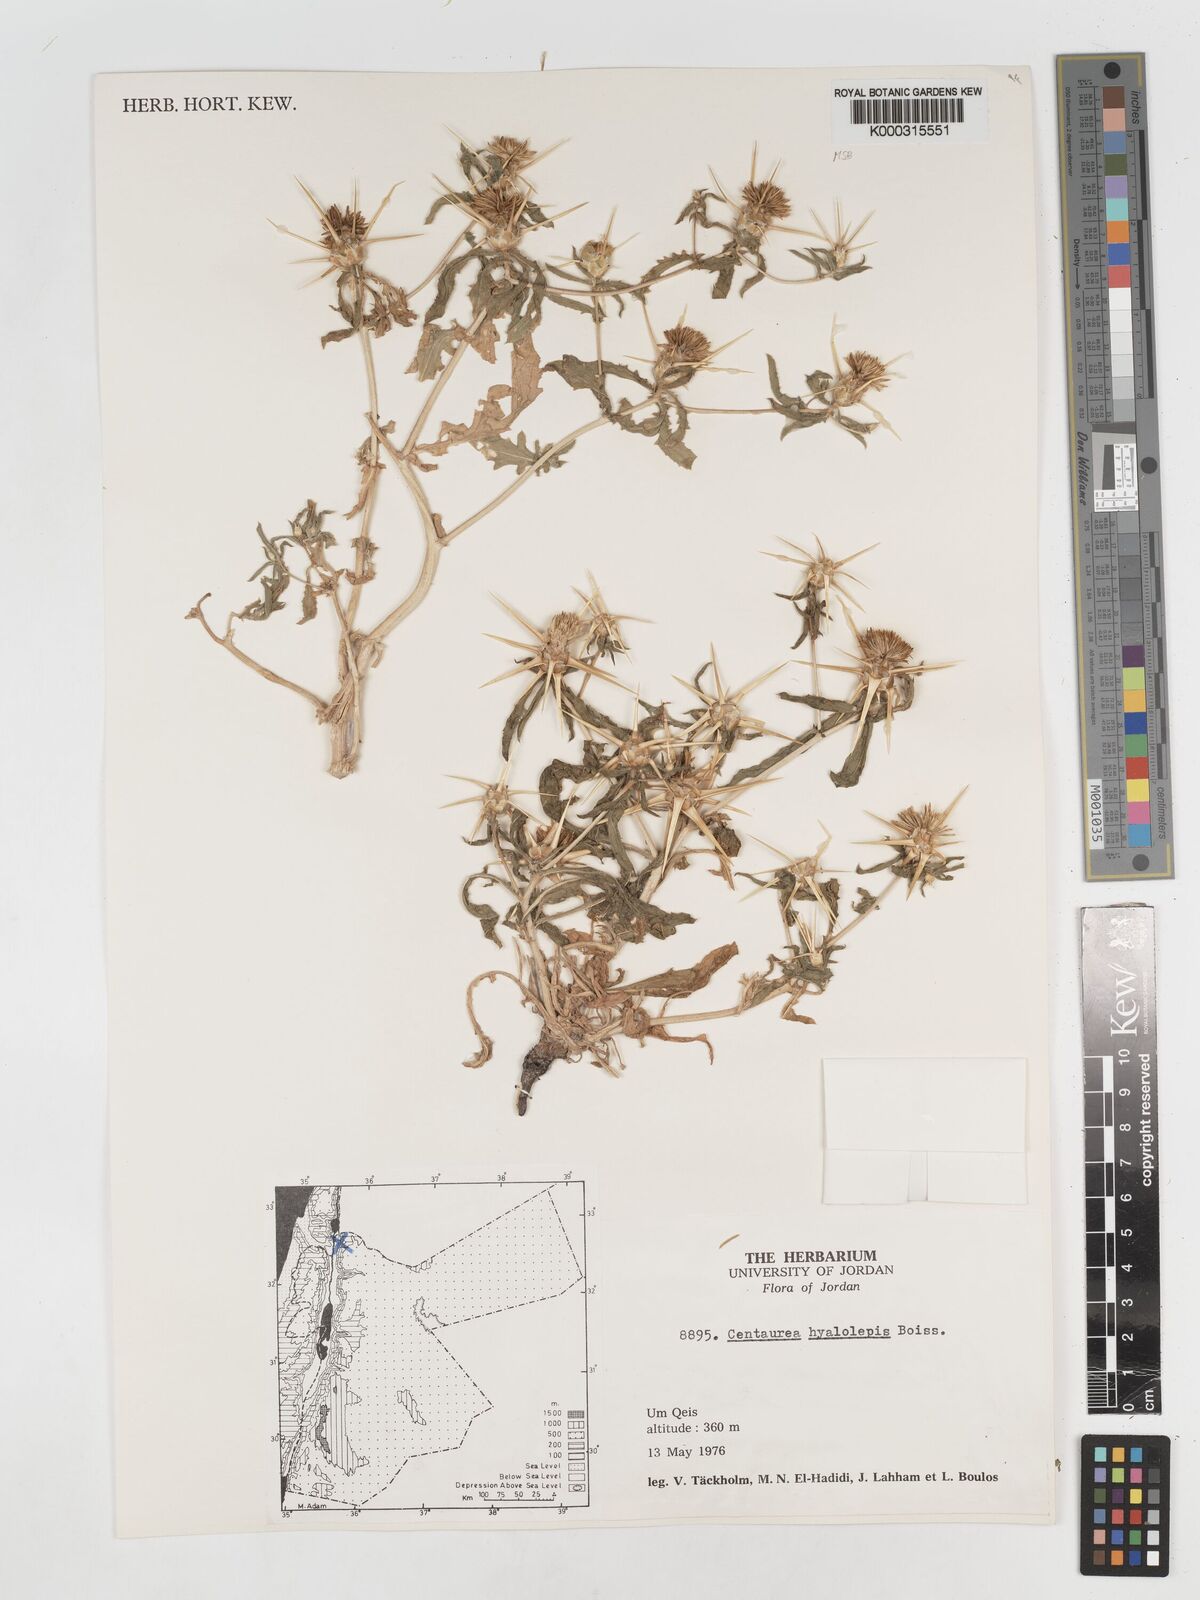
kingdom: Plantae
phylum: Tracheophyta
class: Magnoliopsida
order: Asterales
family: Asteraceae
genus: Centaurea
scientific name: Centaurea hyalolepis
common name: Eastern star-thistle
